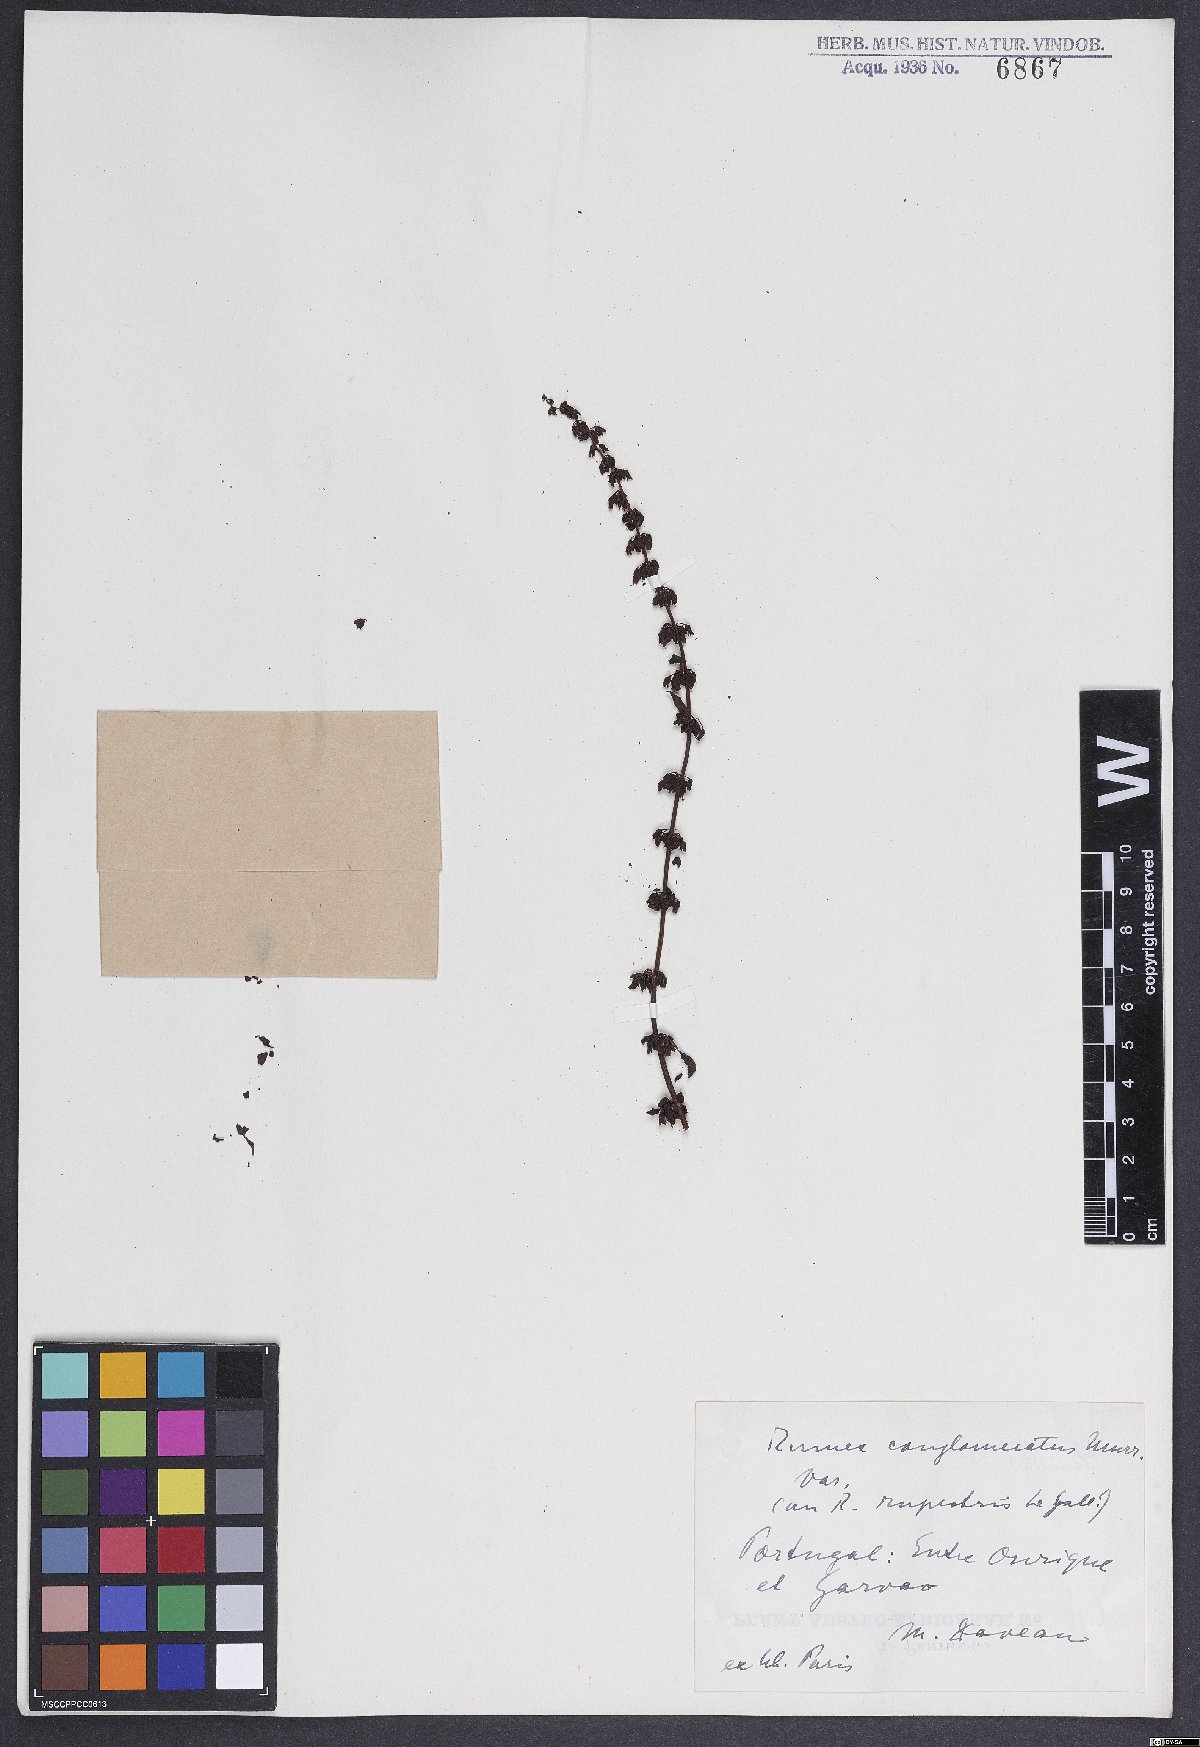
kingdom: Plantae
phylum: Tracheophyta
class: Magnoliopsida
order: Caryophyllales
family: Polygonaceae
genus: Rumex
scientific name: Rumex conglomeratus
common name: Clustered dock
